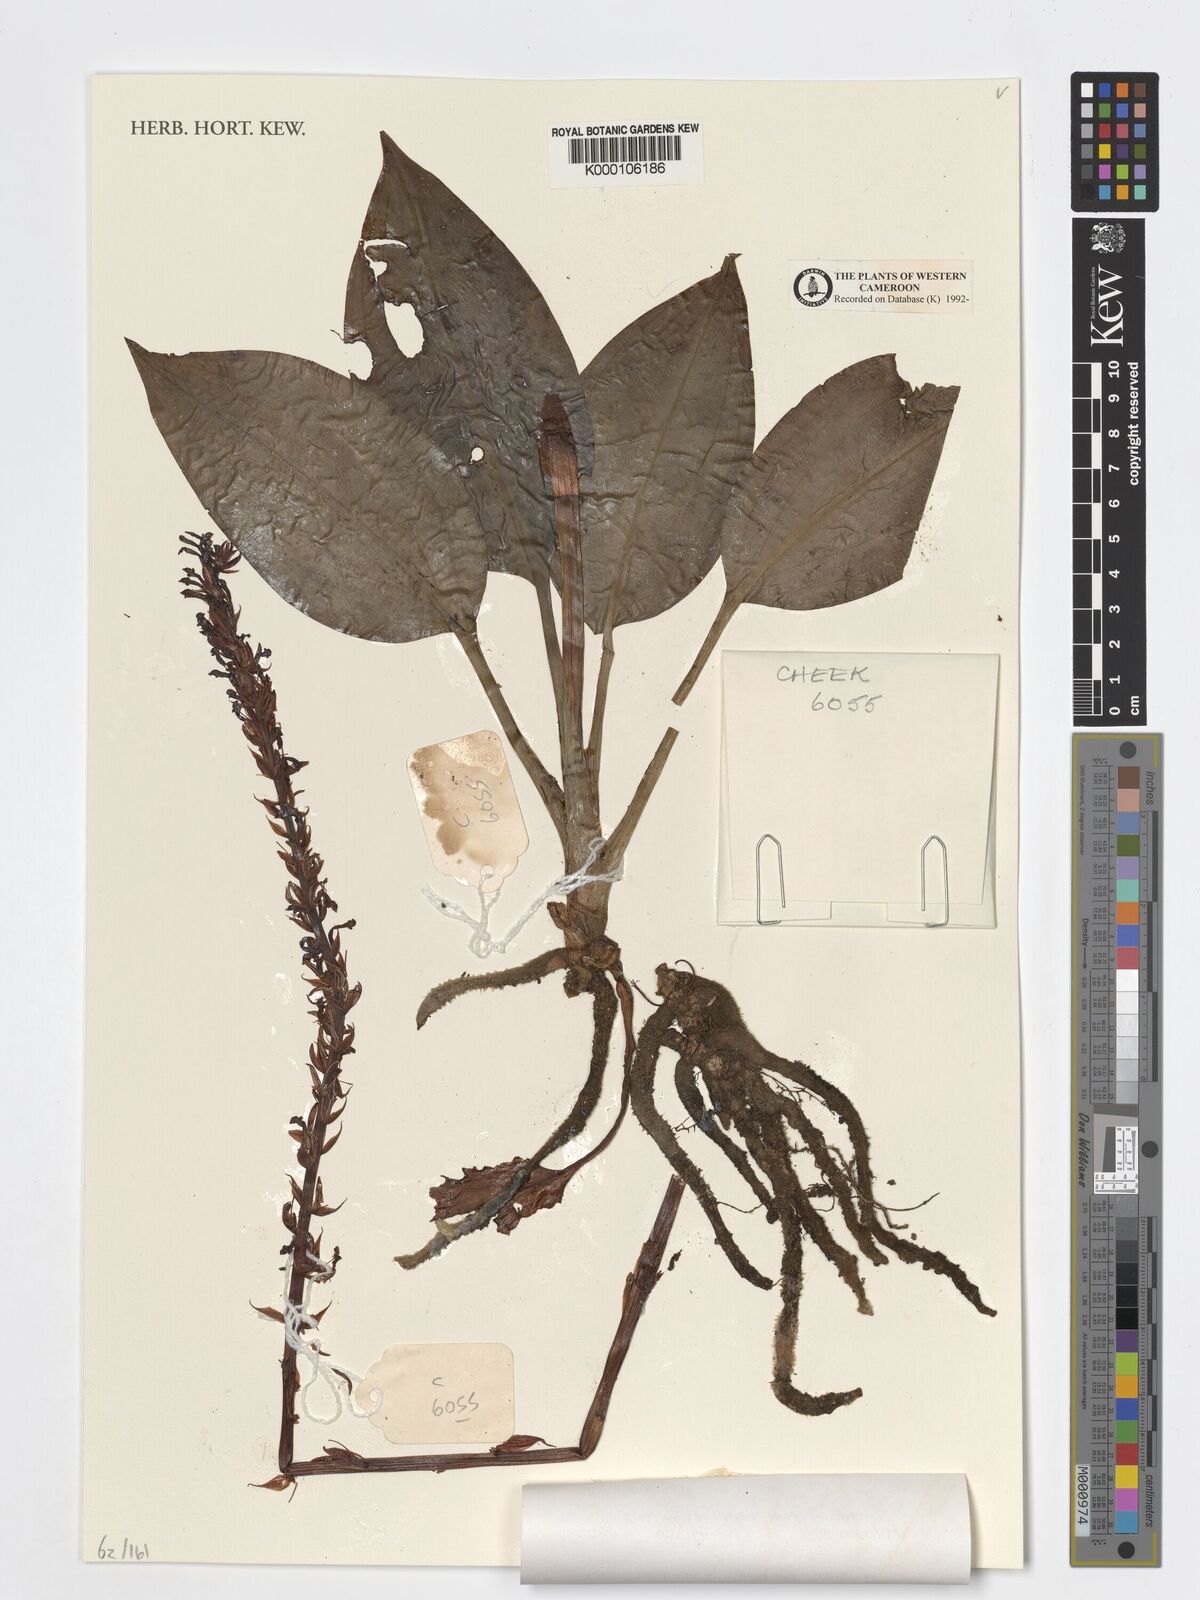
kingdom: Plantae
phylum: Tracheophyta
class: Liliopsida
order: Asparagales
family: Orchidaceae
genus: Manniella
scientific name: Manniella gustavi
